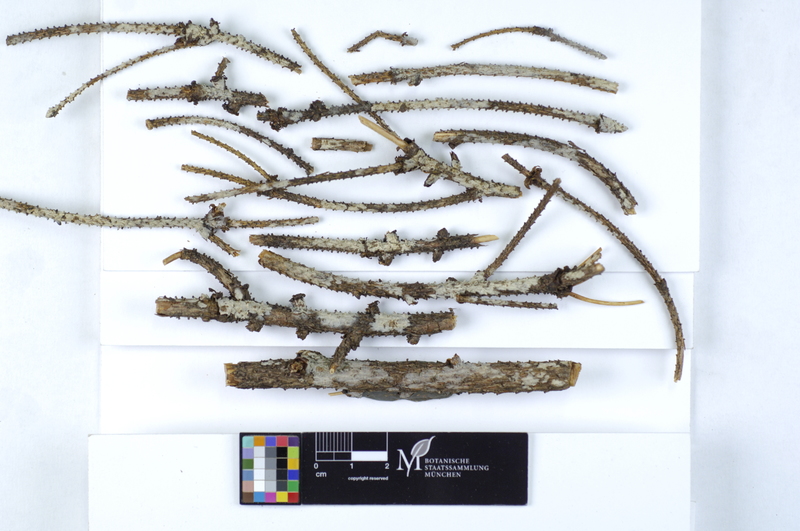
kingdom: Plantae
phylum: Tracheophyta
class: Pinopsida
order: Pinales
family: Pinaceae
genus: Picea
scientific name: Picea
